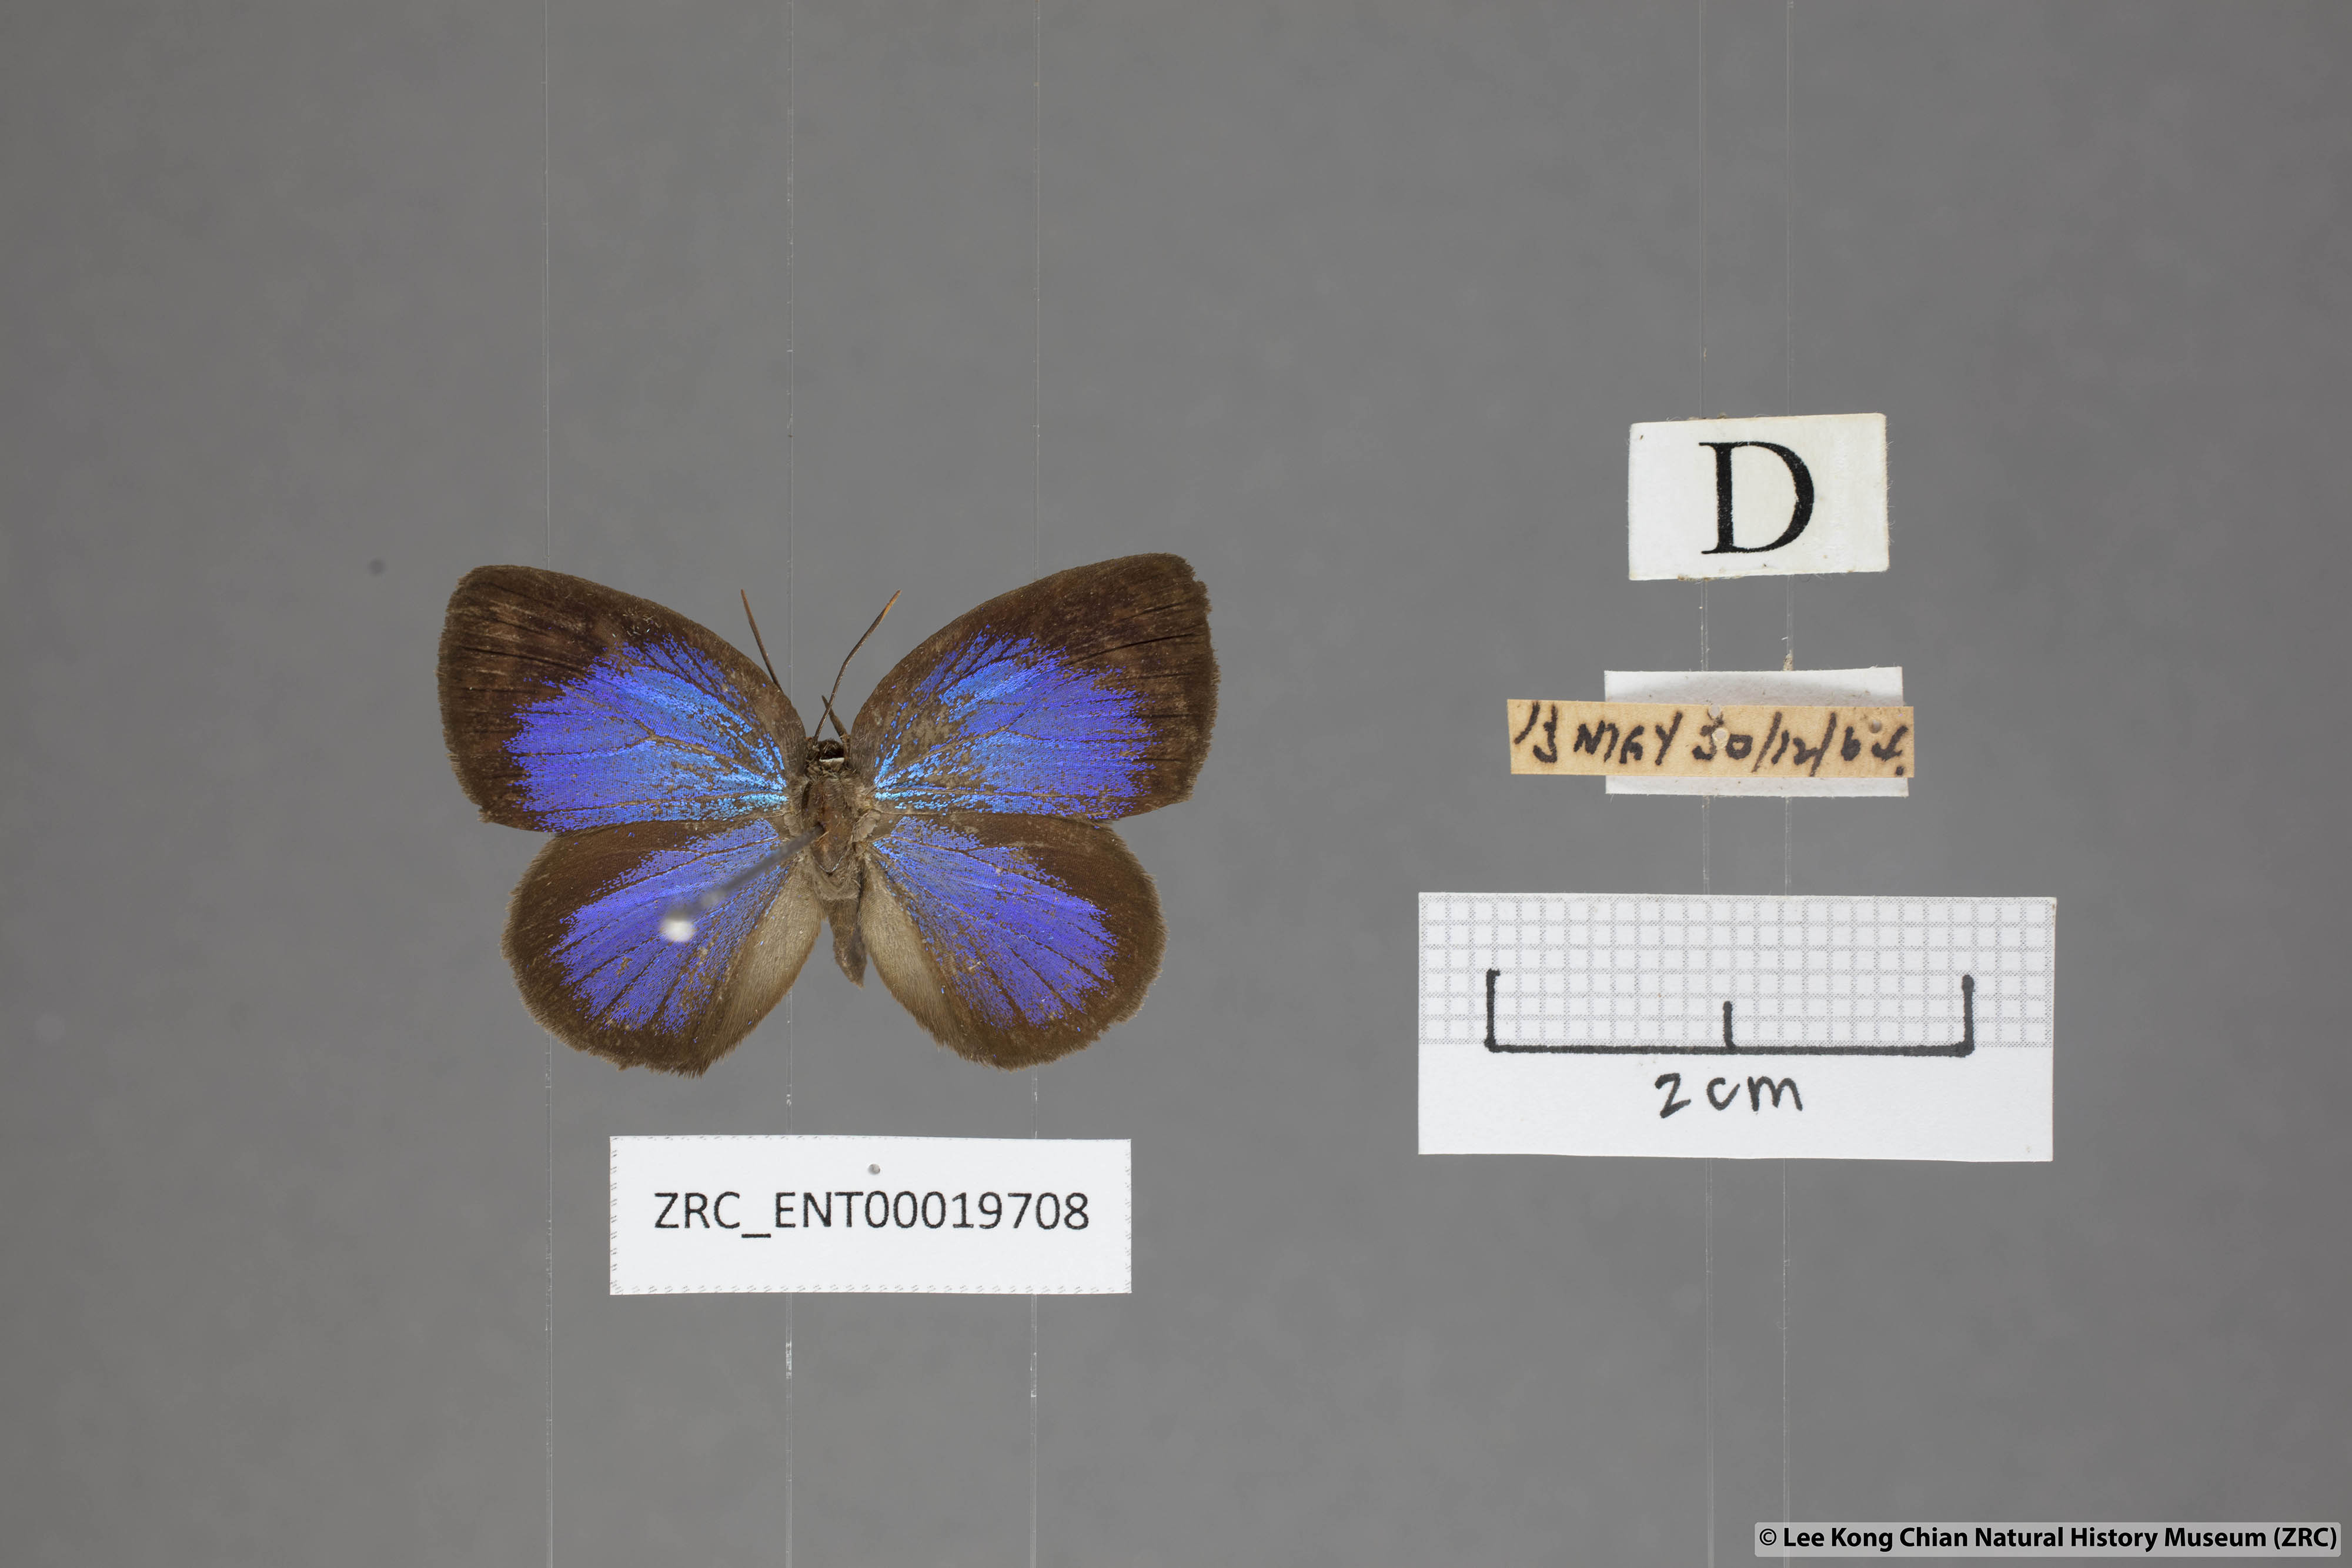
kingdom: Animalia
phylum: Arthropoda
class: Insecta
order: Lepidoptera
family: Lycaenidae
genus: Arhopala
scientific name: Arhopala muta
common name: Mutal oakblue
